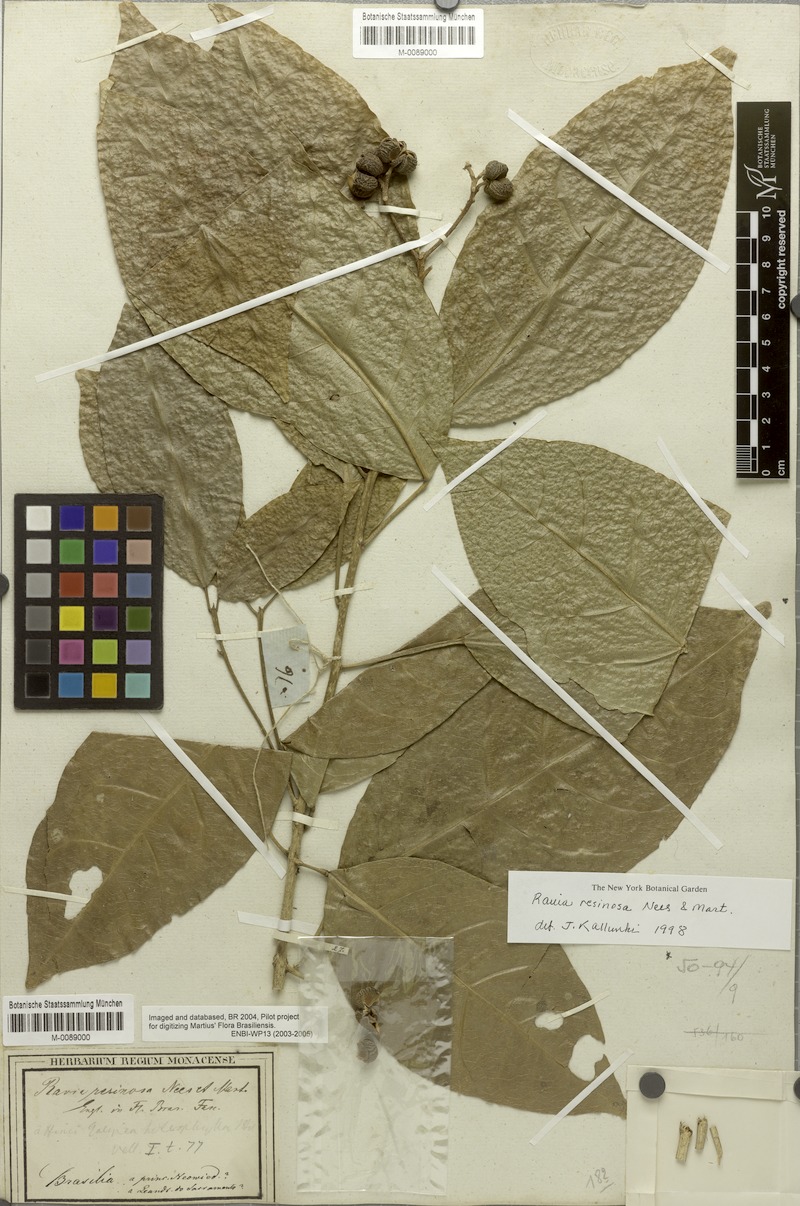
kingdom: Plantae
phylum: Tracheophyta
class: Magnoliopsida
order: Sapindales
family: Rutaceae
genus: Rauia
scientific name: Rauia resinosa
